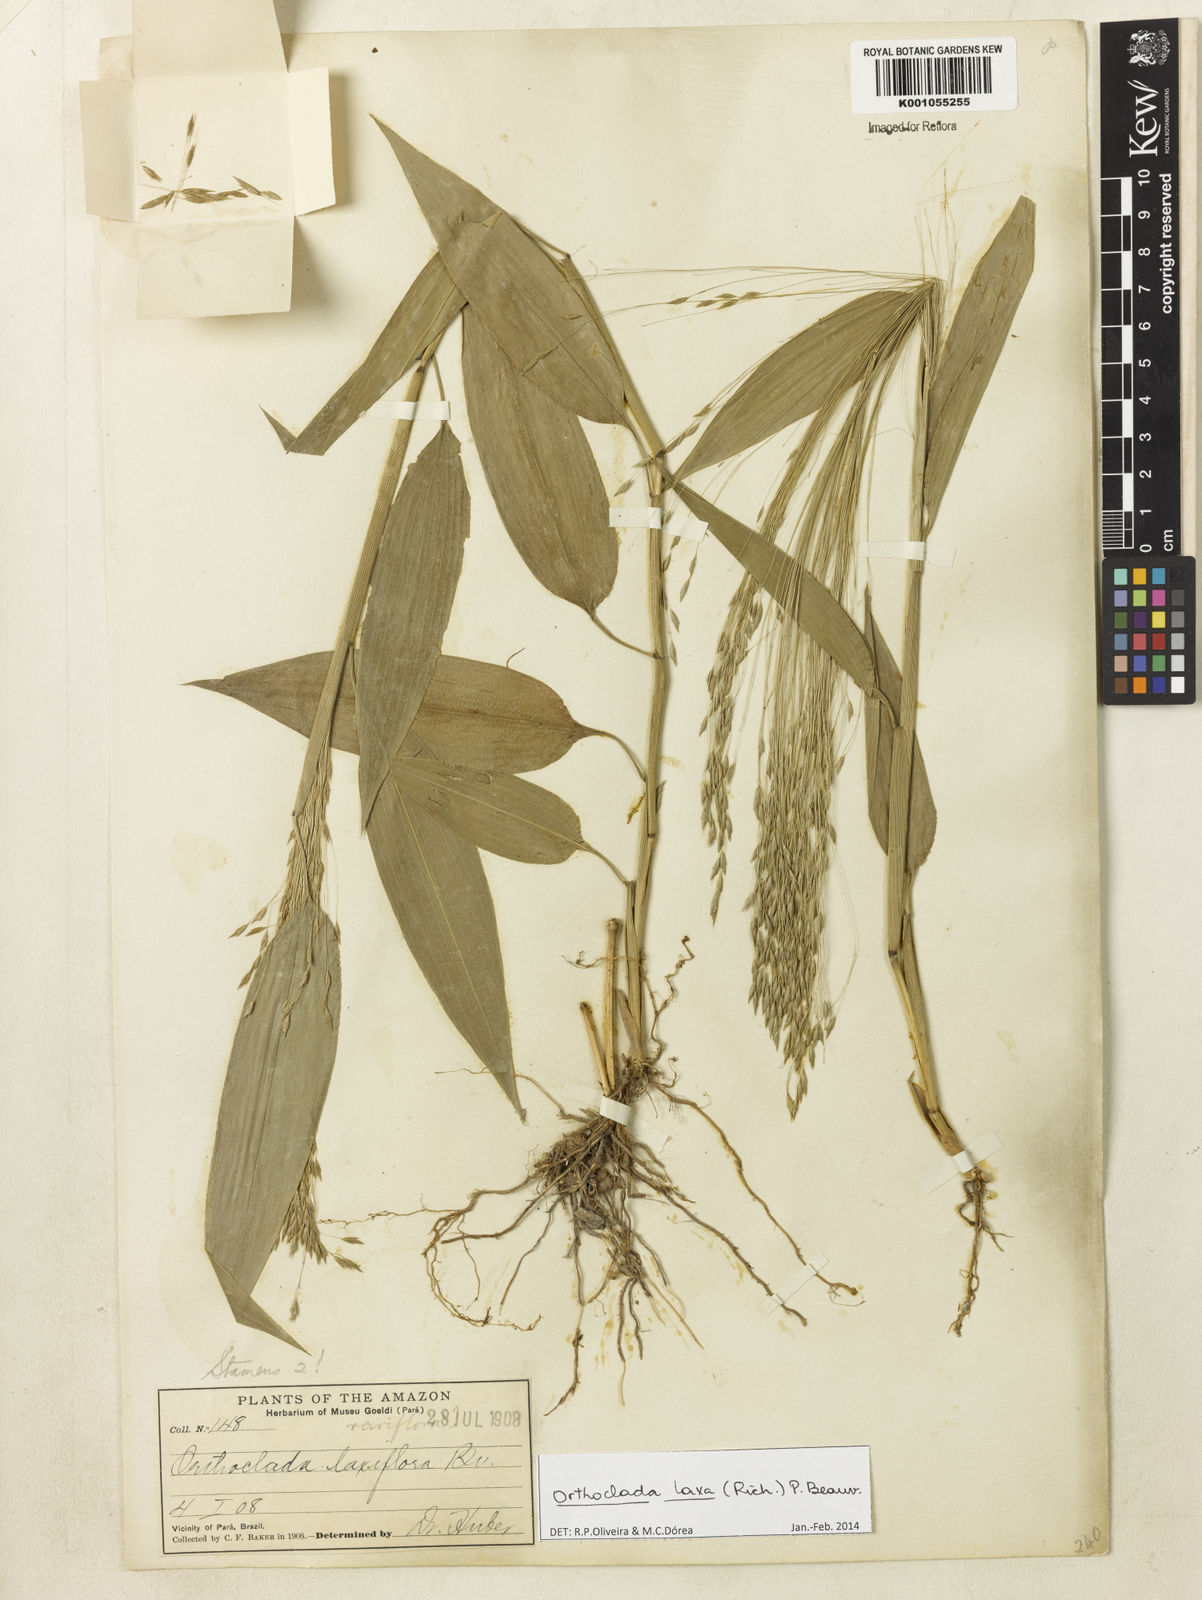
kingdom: Plantae
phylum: Tracheophyta
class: Liliopsida
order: Poales
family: Poaceae
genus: Orthoclada
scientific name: Orthoclada laxa
